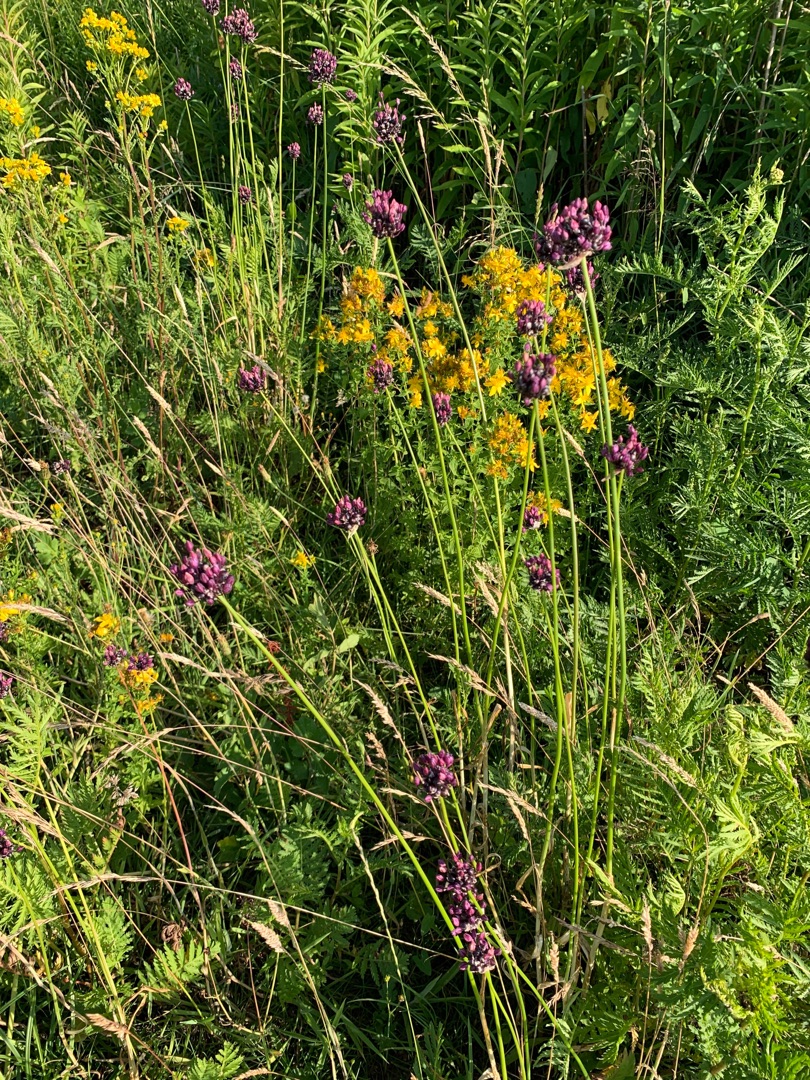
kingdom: Plantae
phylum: Tracheophyta
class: Liliopsida
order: Asparagales
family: Amaryllidaceae
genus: Allium
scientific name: Allium scorodoprasum
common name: Skov-løg
